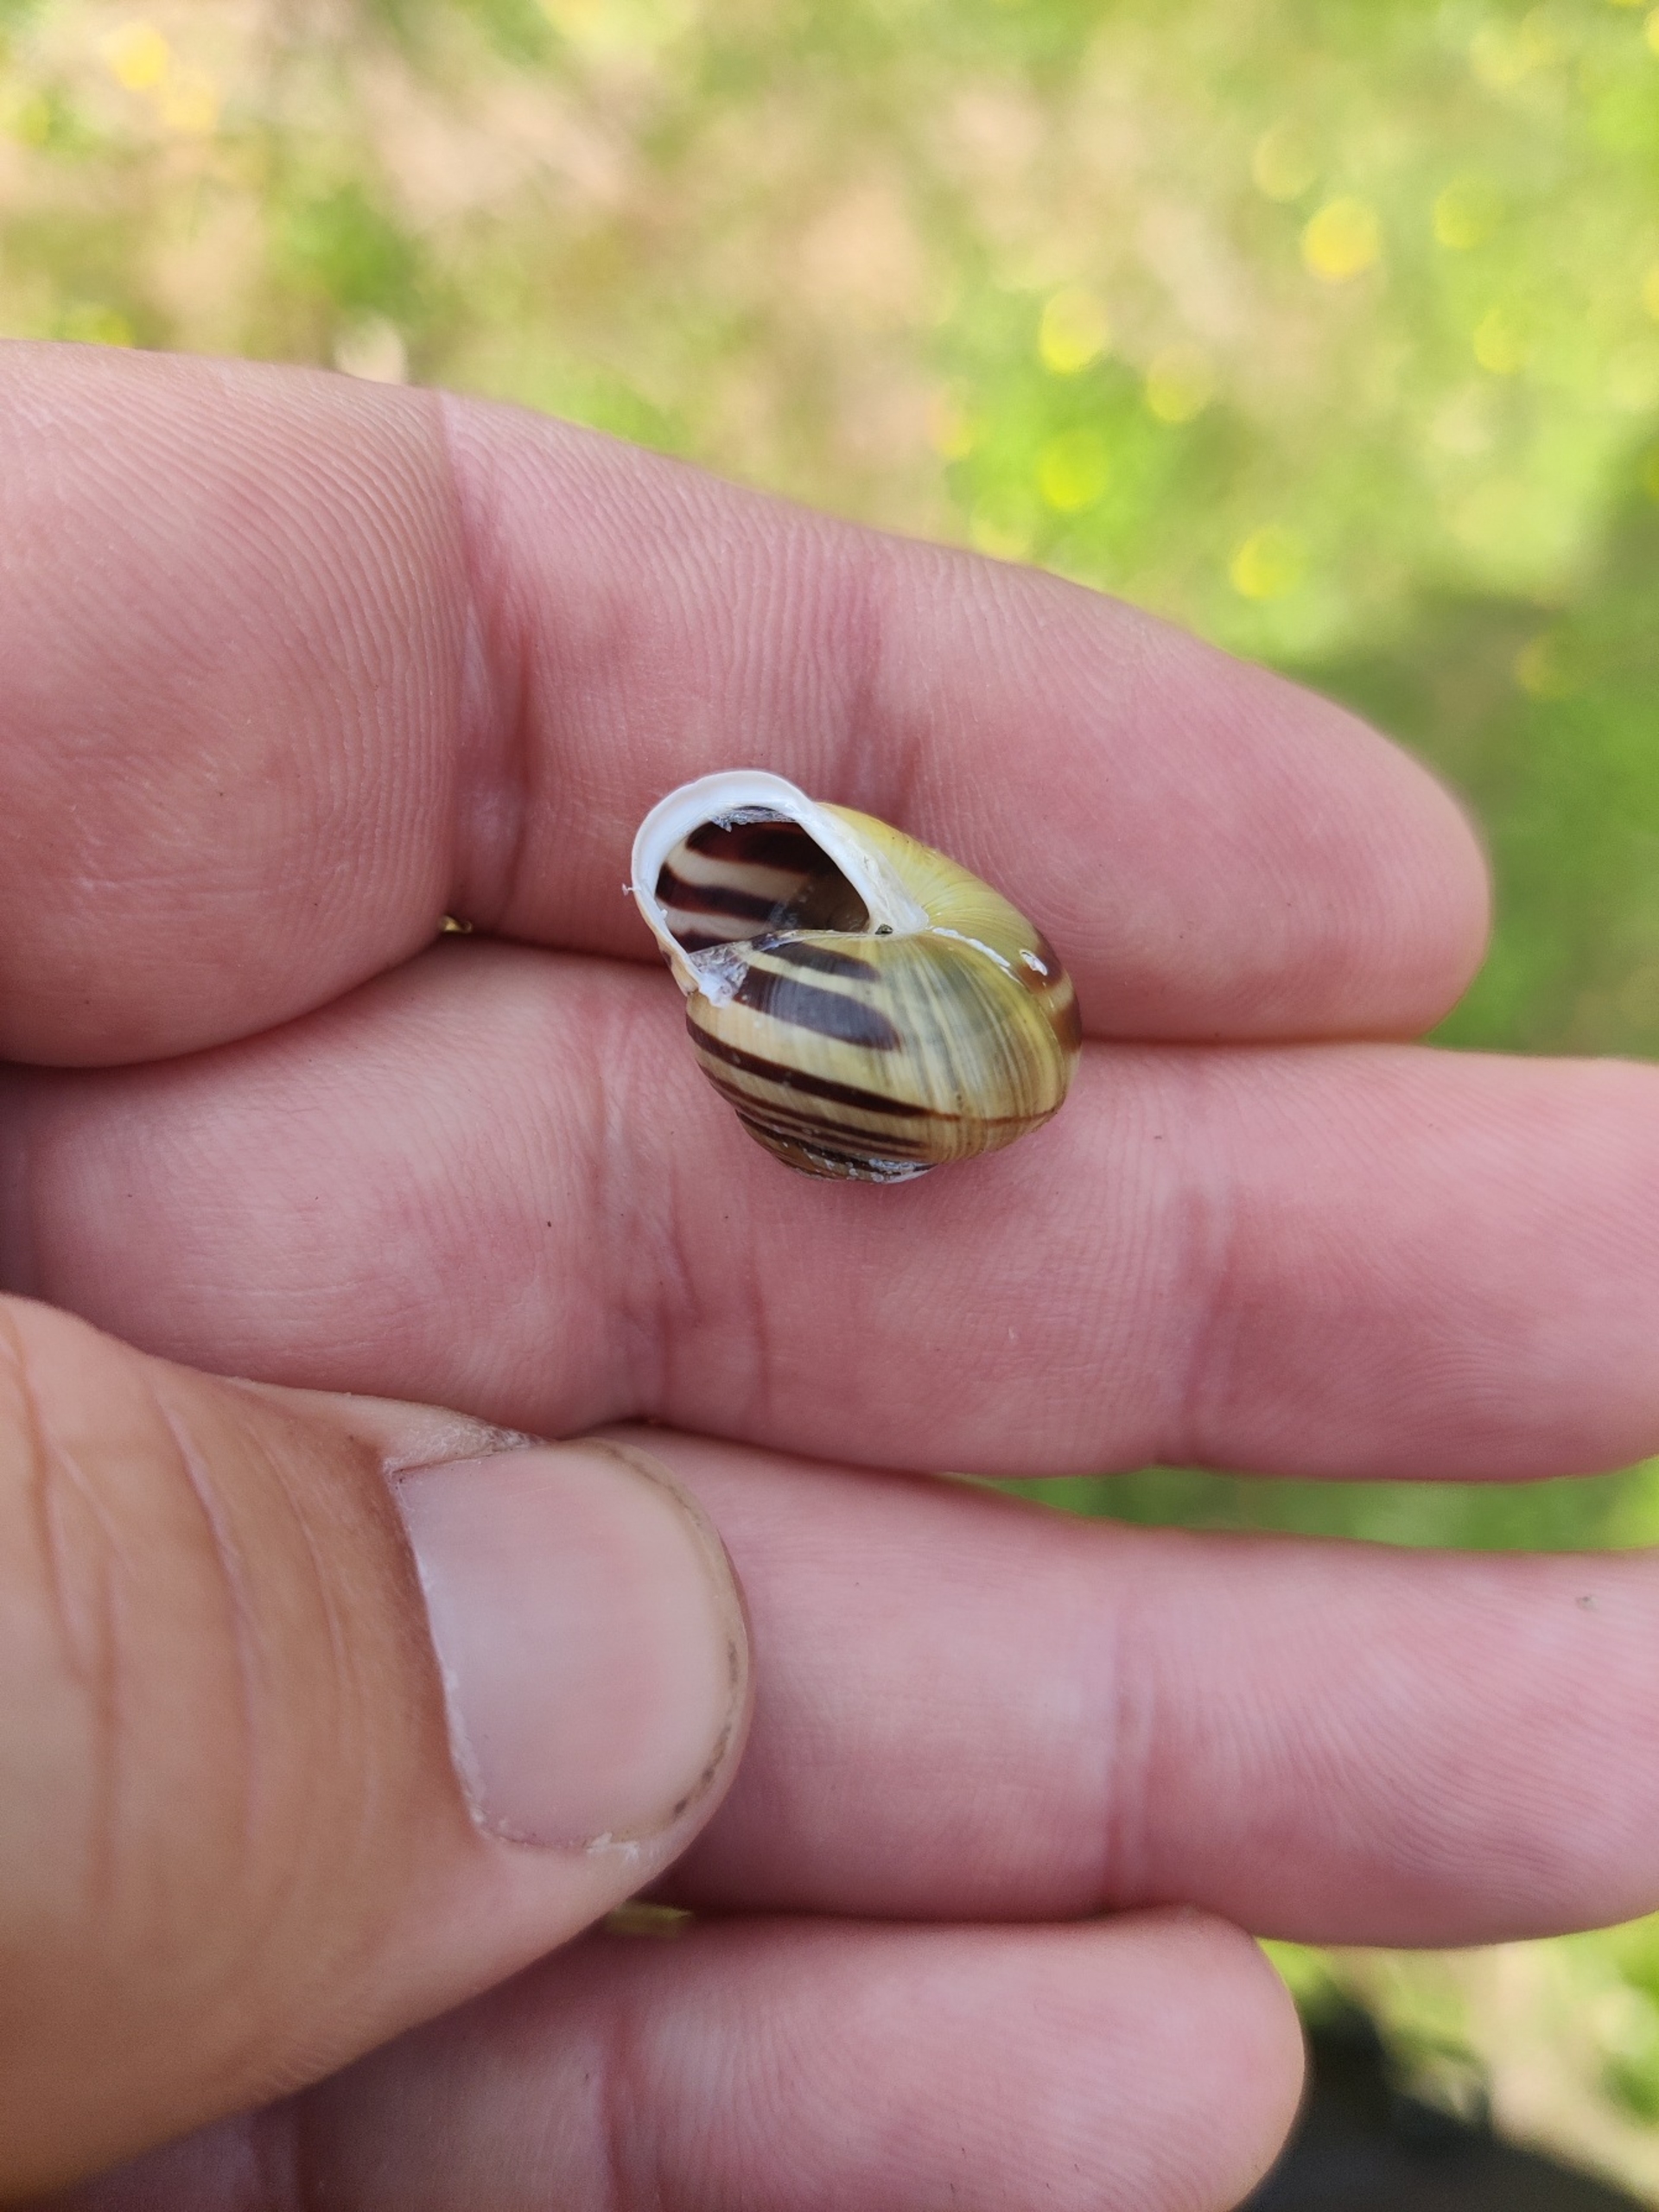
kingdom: Animalia
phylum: Mollusca
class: Gastropoda
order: Stylommatophora
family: Helicidae
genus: Cepaea
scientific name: Cepaea hortensis
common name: Havesnegl
